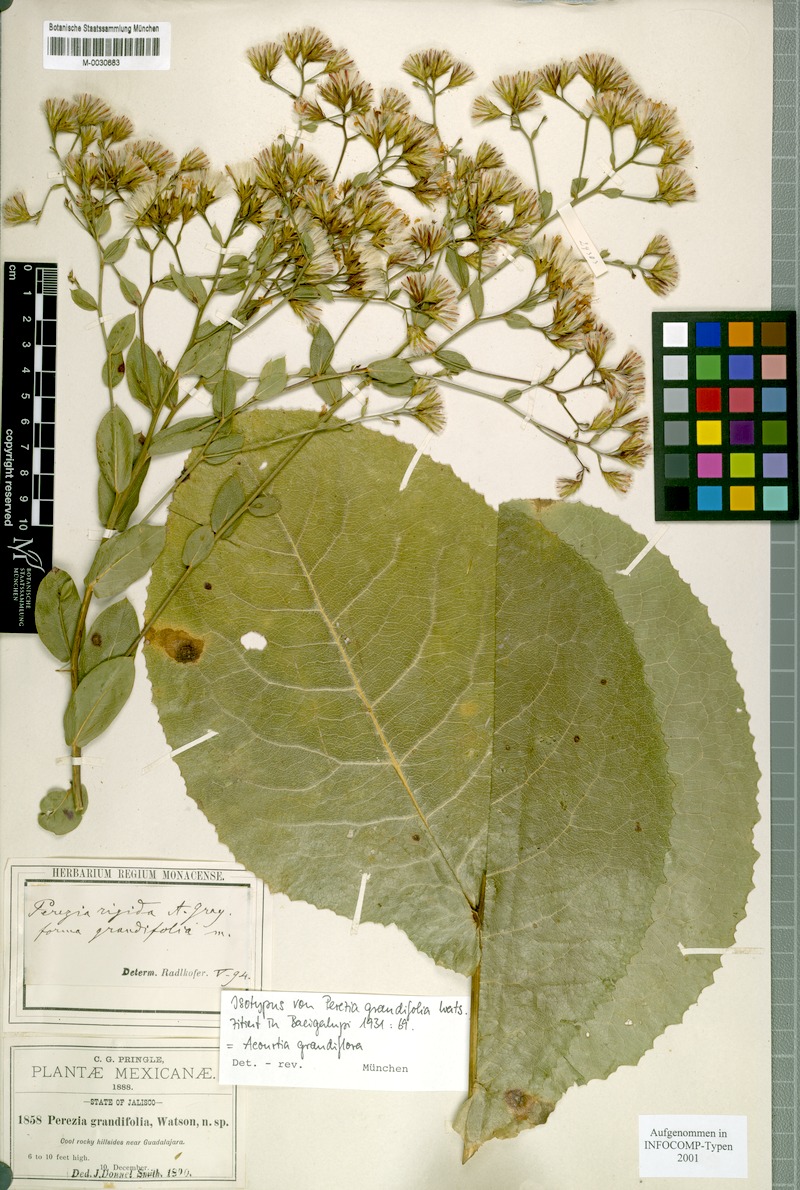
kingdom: Plantae
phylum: Tracheophyta
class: Magnoliopsida
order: Asterales
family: Asteraceae
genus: Acourtia
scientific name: Acourtia grandifolia
